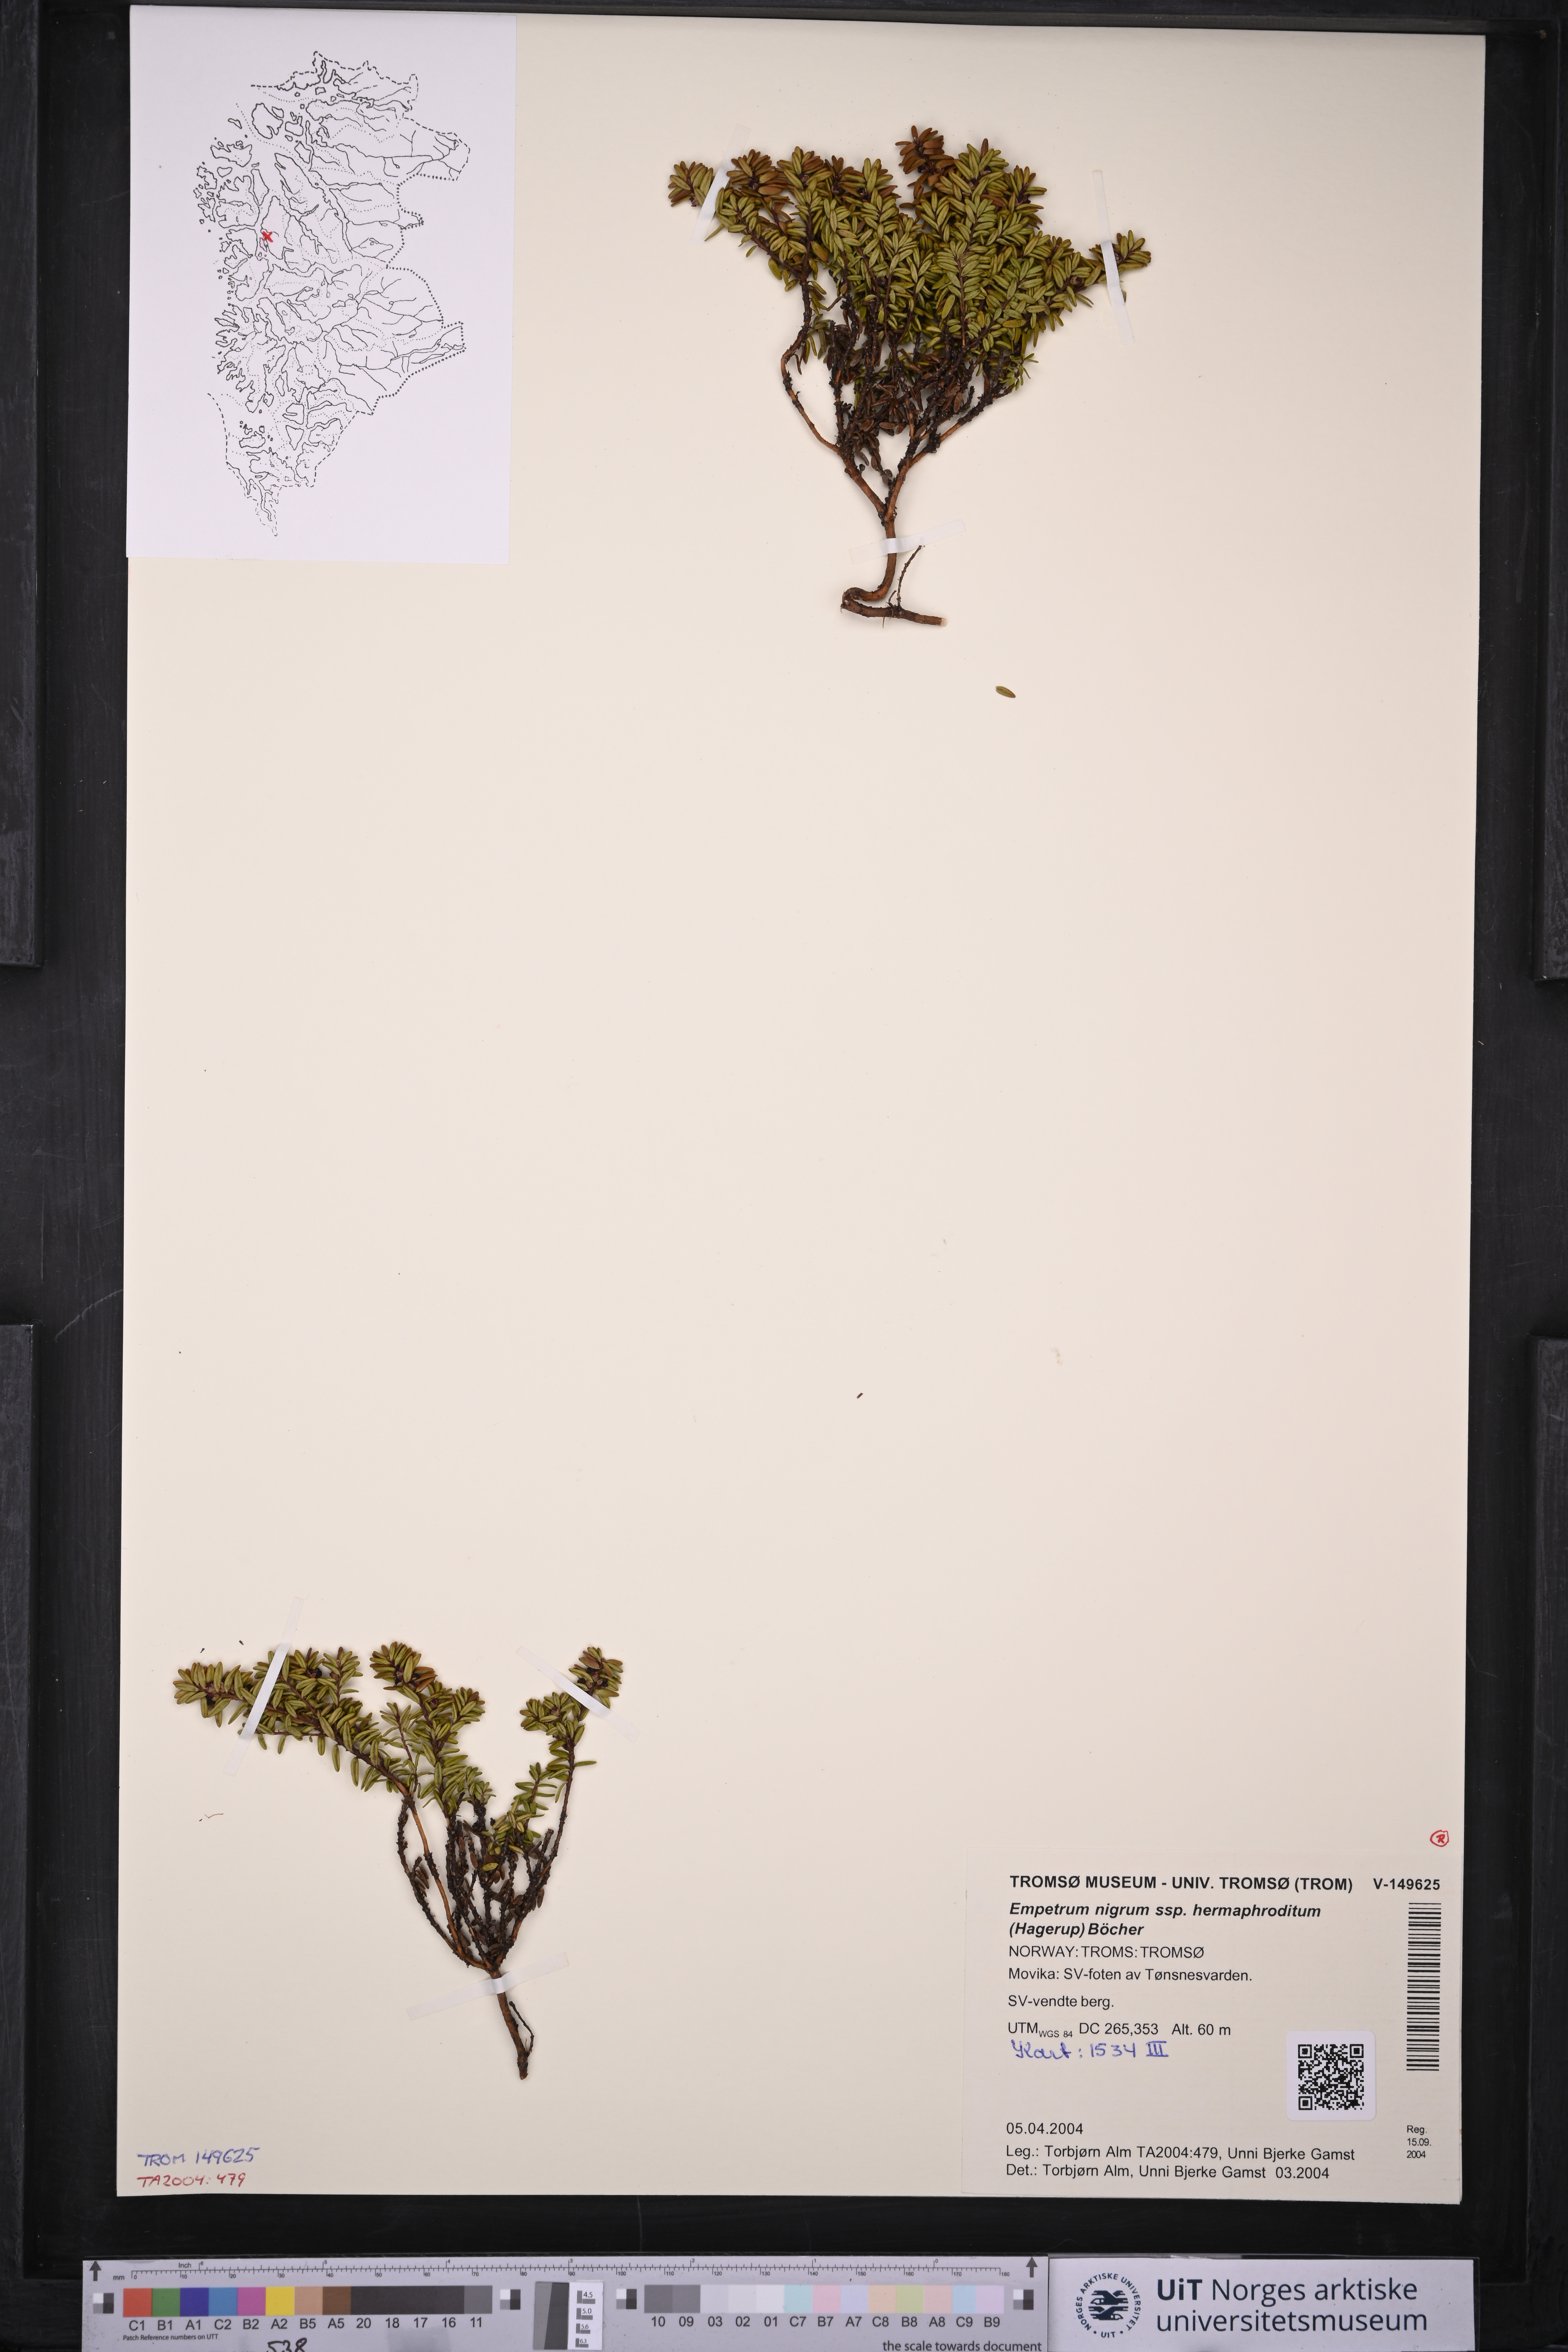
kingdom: Plantae
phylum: Tracheophyta
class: Magnoliopsida
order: Ericales
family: Ericaceae
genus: Empetrum
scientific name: Empetrum hermaphroditum
